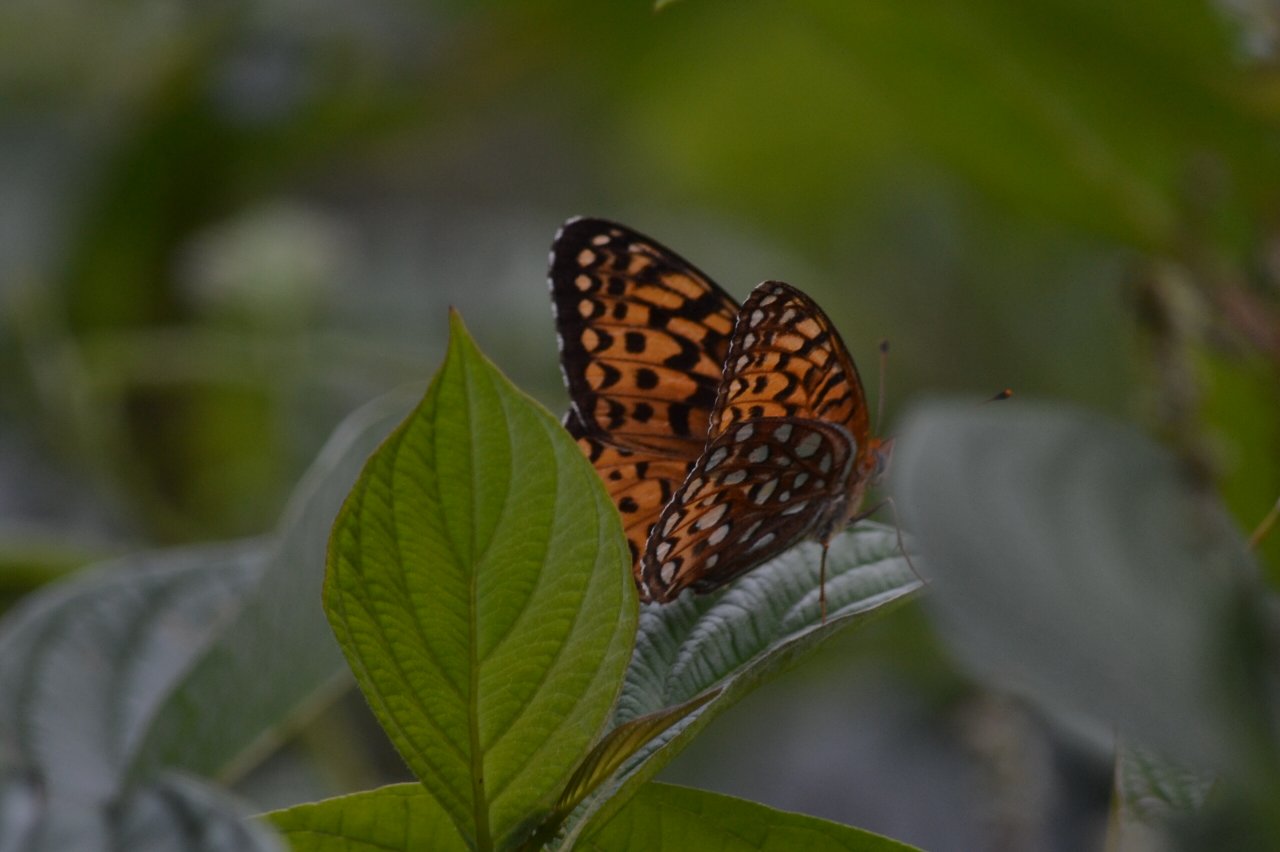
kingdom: Animalia
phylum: Arthropoda
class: Insecta
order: Lepidoptera
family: Nymphalidae
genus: Speyeria
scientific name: Speyeria atlantis
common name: Atlantis Fritillary
